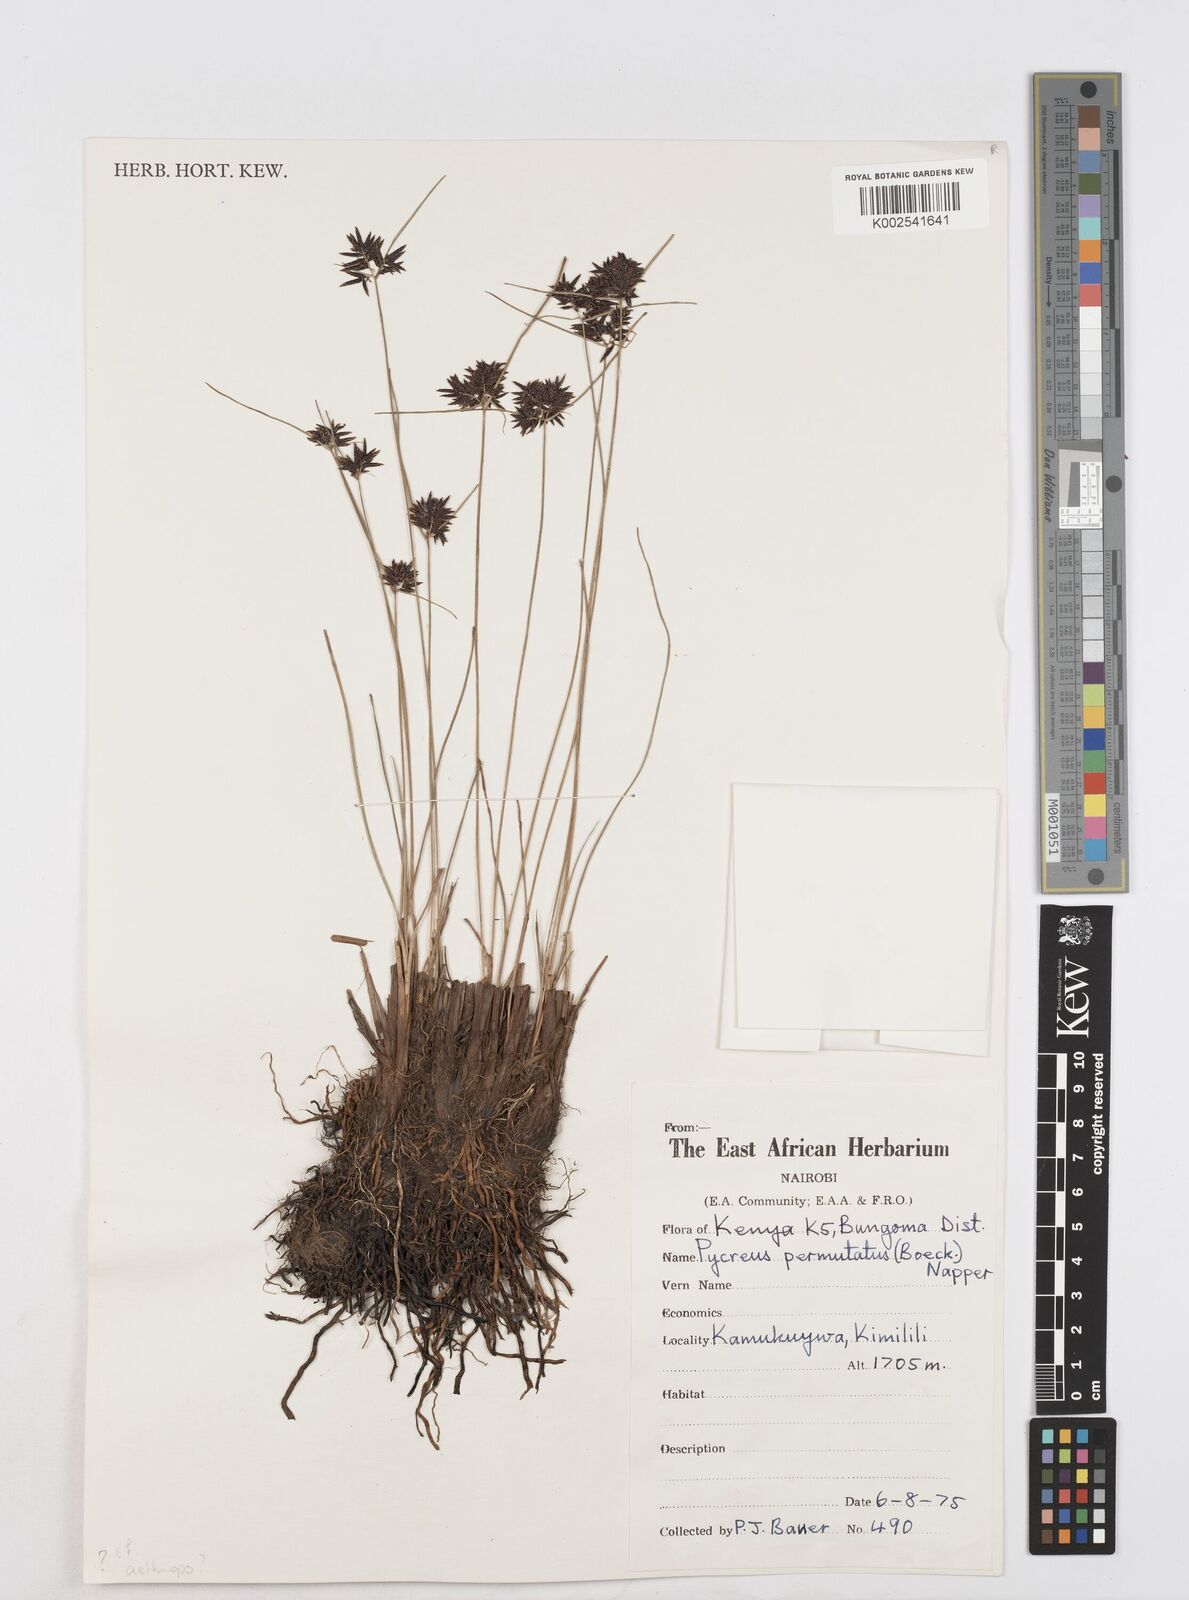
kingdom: Plantae
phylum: Tracheophyta
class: Liliopsida
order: Poales
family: Cyperaceae
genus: Cyperus
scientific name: Cyperus aethiops
